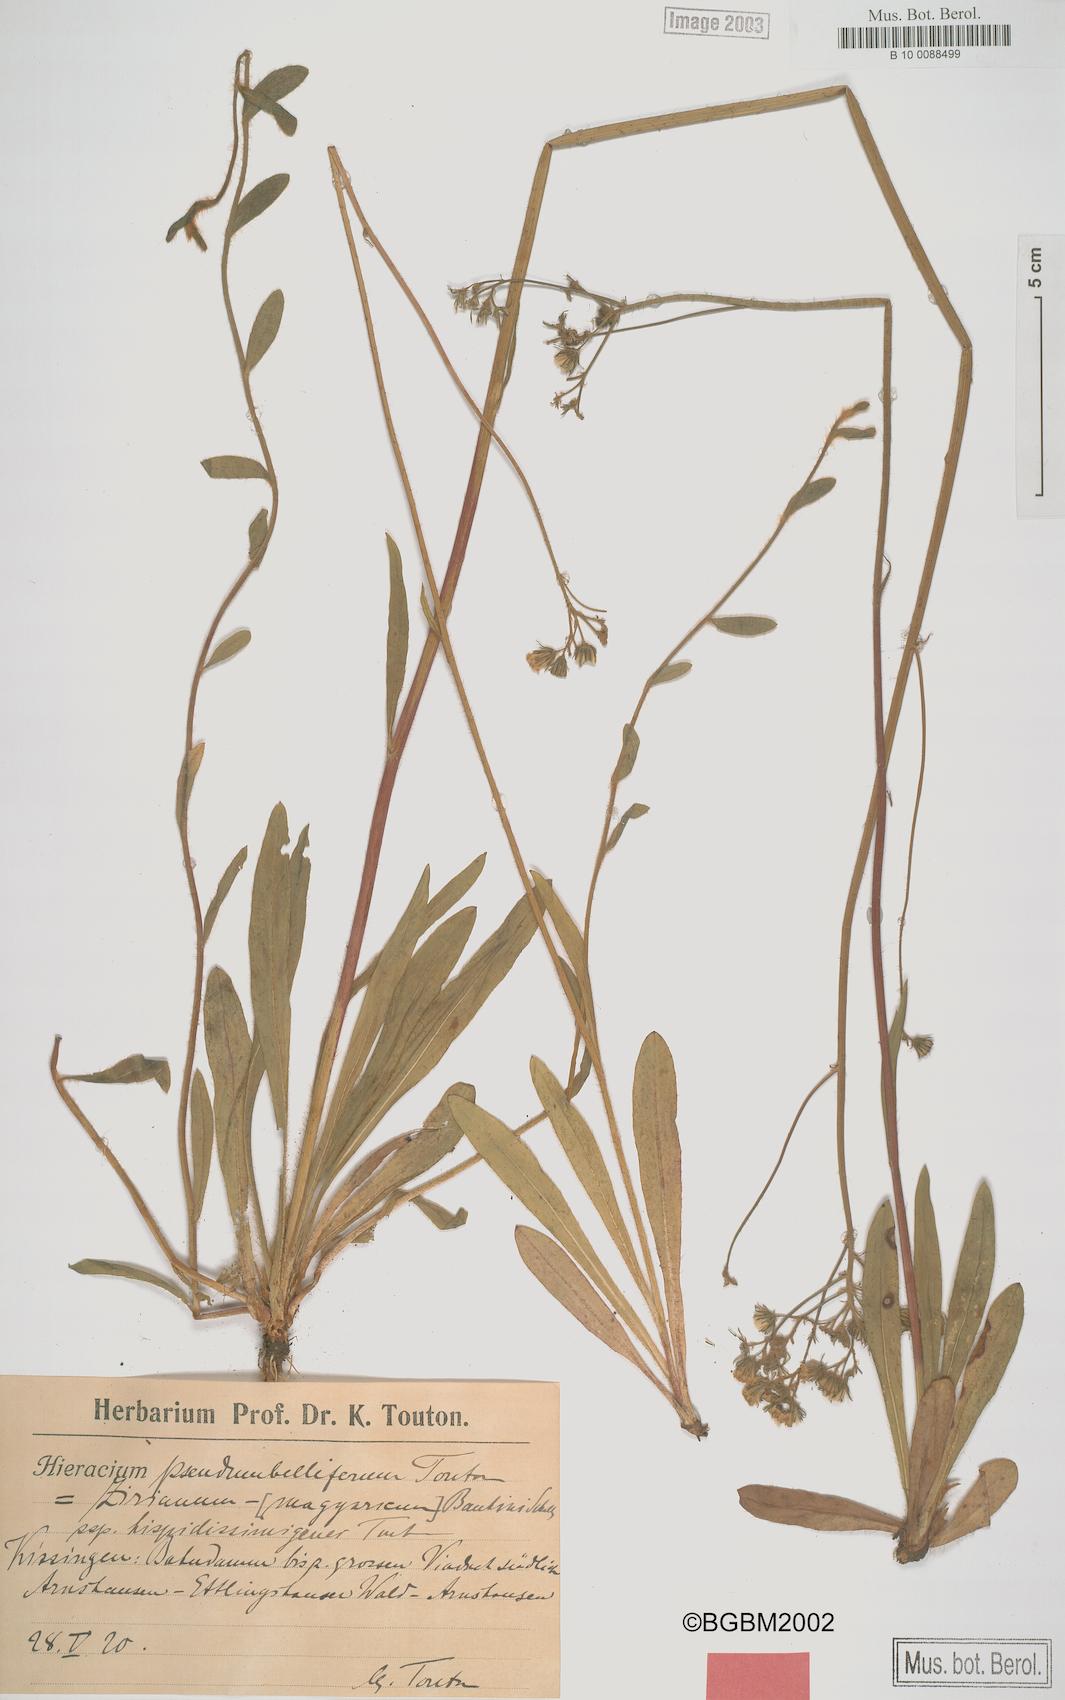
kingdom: Plantae
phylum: Tracheophyta
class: Magnoliopsida
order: Asterales
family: Asteraceae
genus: Pilosella
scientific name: Pilosella bauhini
